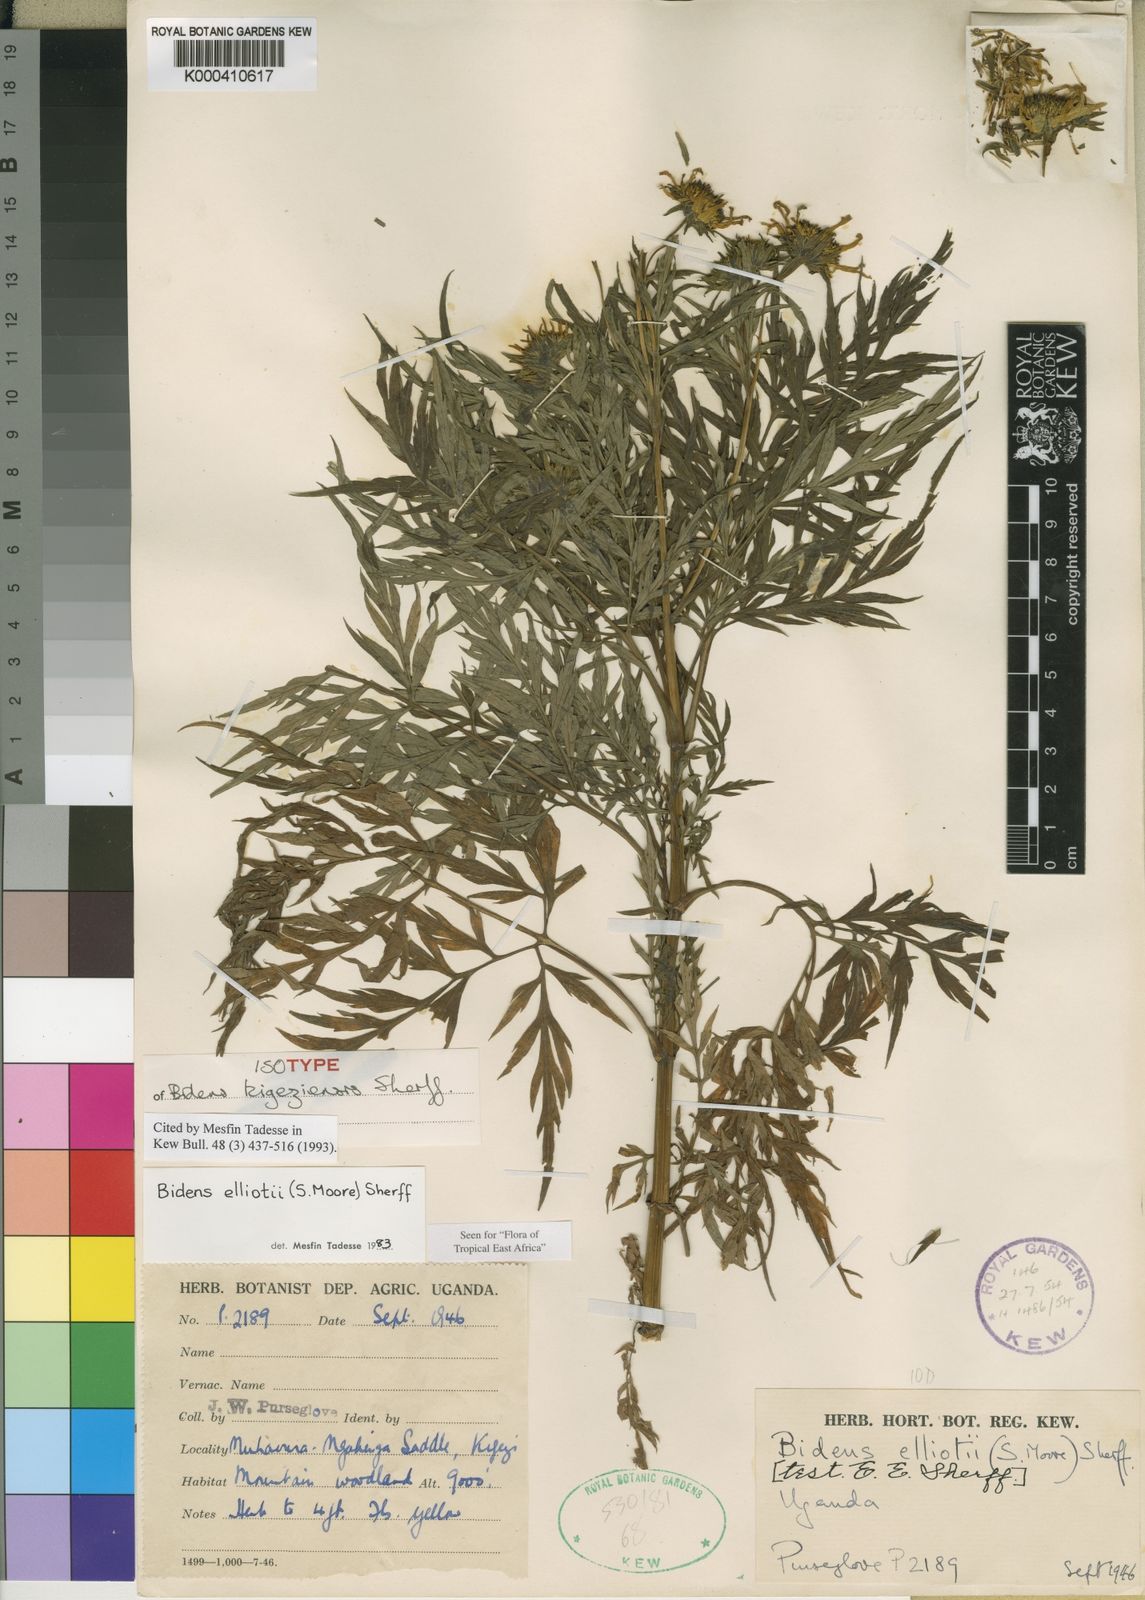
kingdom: Plantae
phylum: Tracheophyta
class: Magnoliopsida
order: Asterales
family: Asteraceae
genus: Bidens
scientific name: Bidens elliotii
